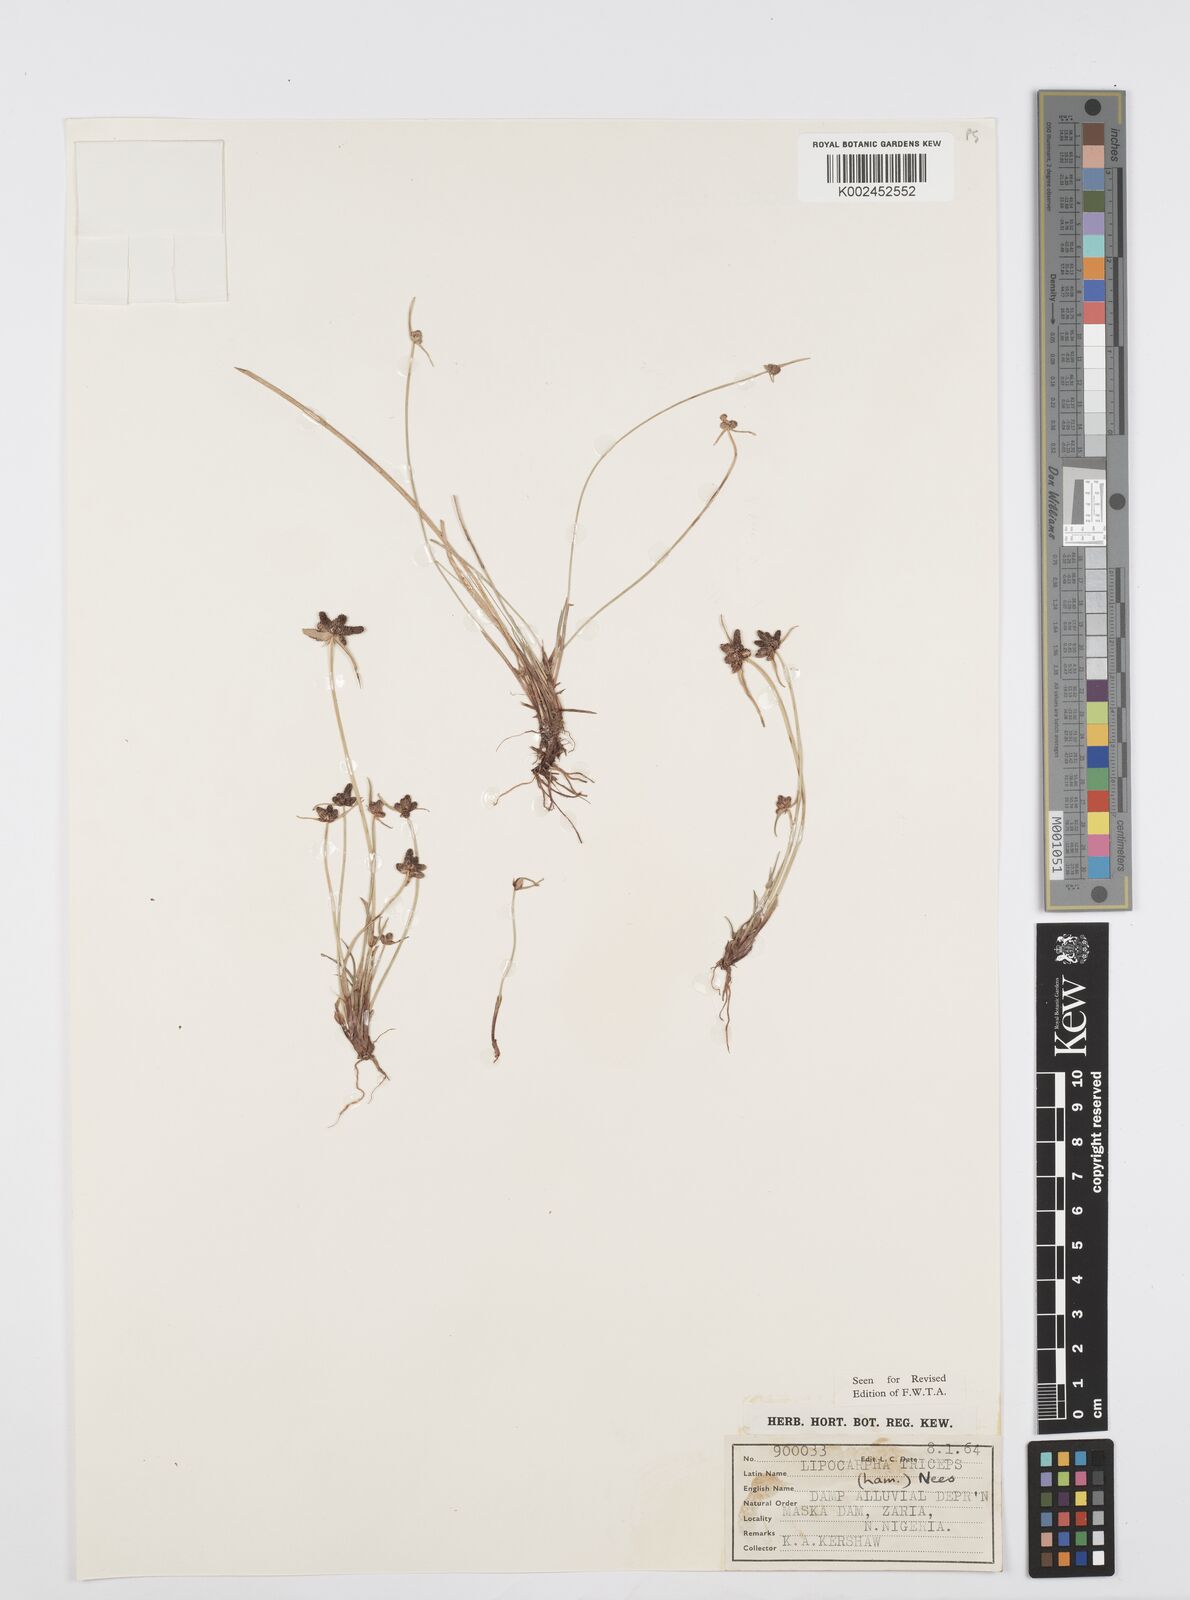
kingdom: Plantae
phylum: Tracheophyta
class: Liliopsida
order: Poales
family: Cyperaceae
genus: Cyperus
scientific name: Cyperus filiformis
